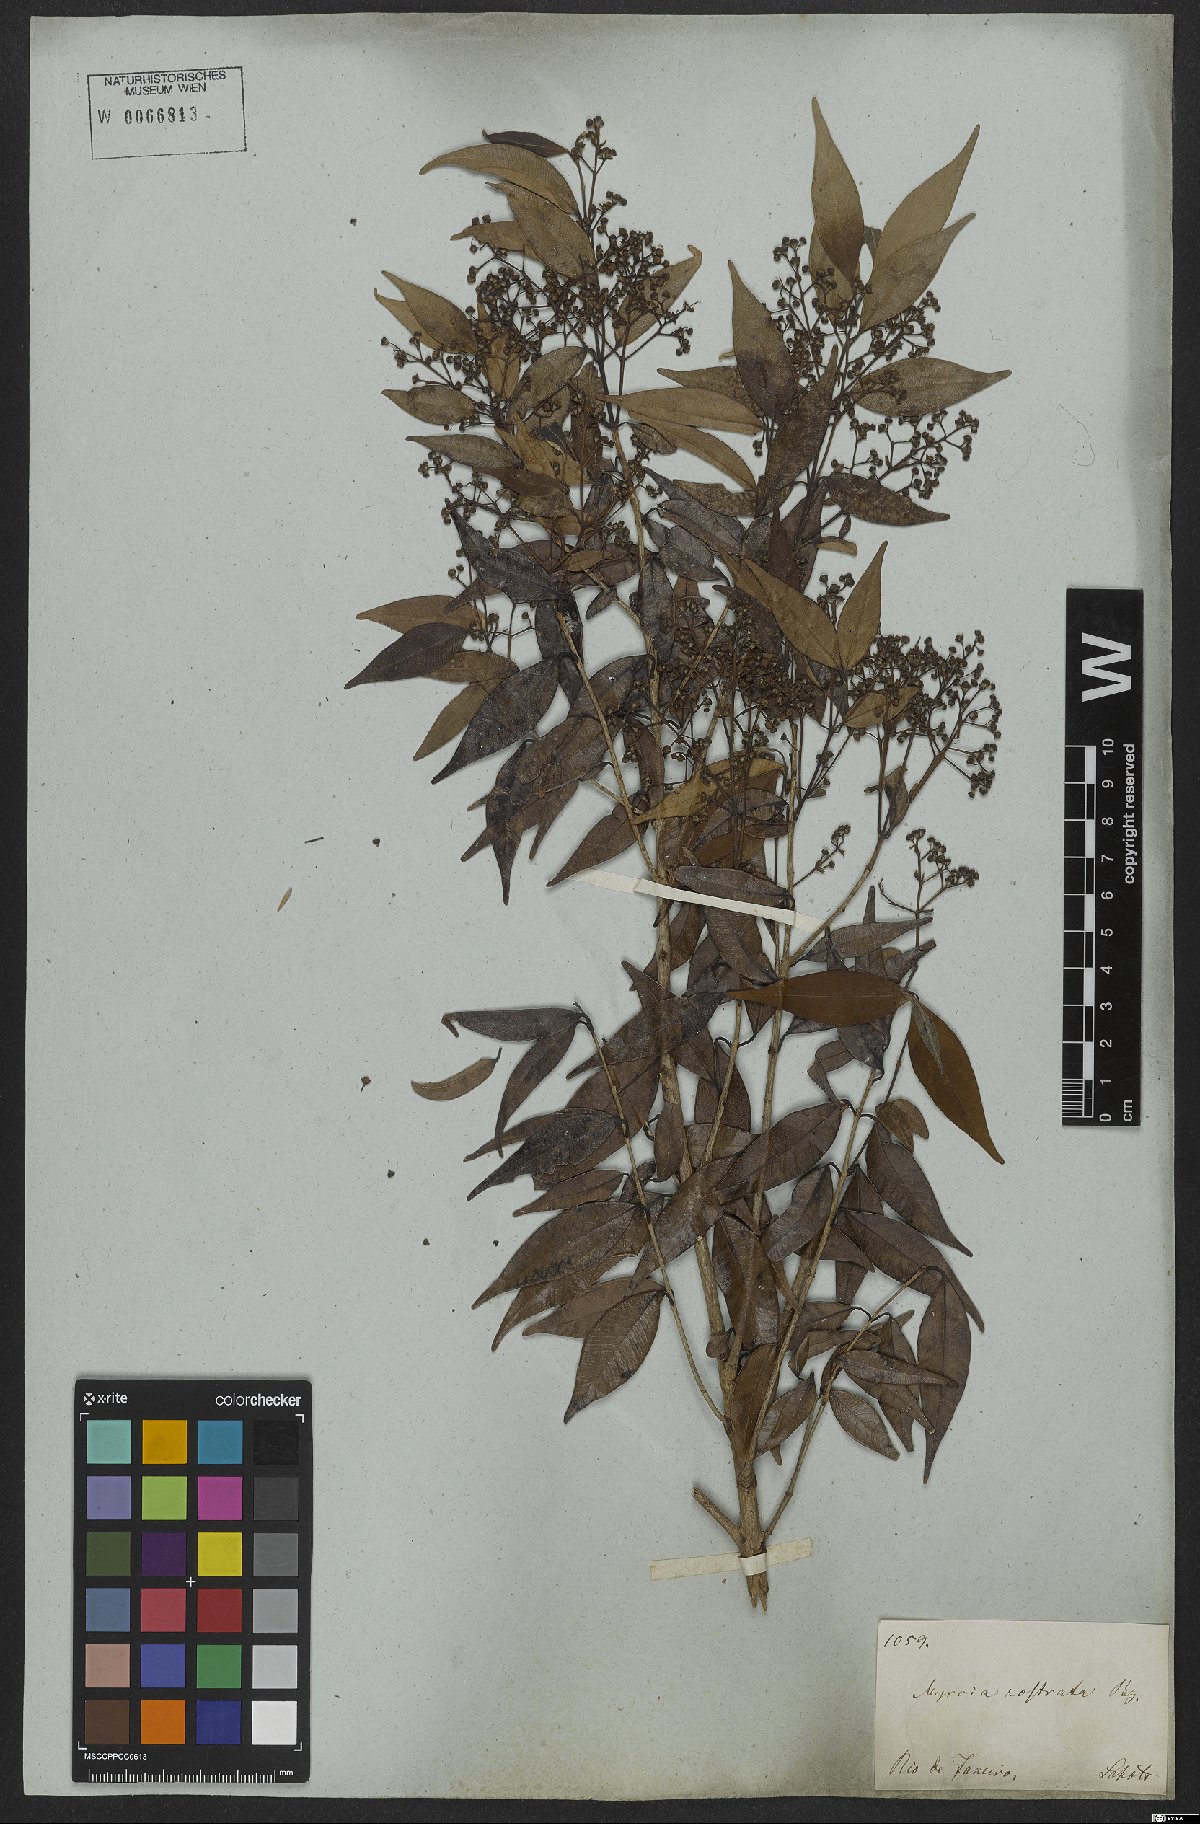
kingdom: Plantae
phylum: Tracheophyta
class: Magnoliopsida
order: Myrtales
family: Myrtaceae
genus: Myrcia
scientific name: Myrcia splendens
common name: Surinam cherry
